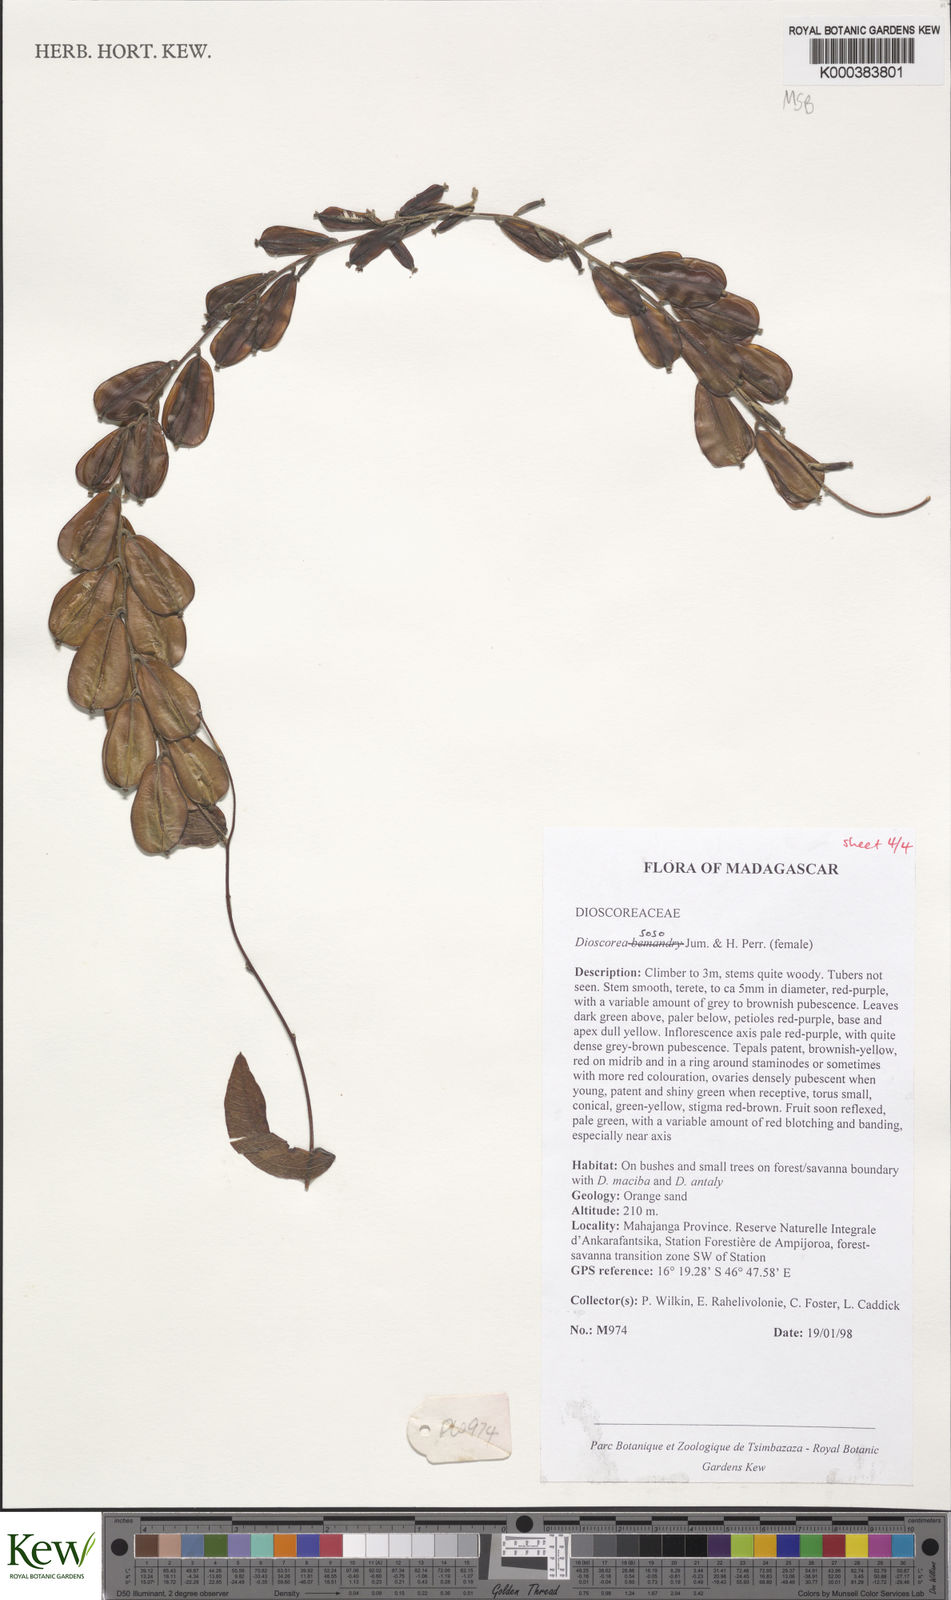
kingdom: Plantae
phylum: Tracheophyta
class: Liliopsida
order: Dioscoreales
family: Dioscoreaceae
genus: Dioscorea
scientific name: Dioscorea
